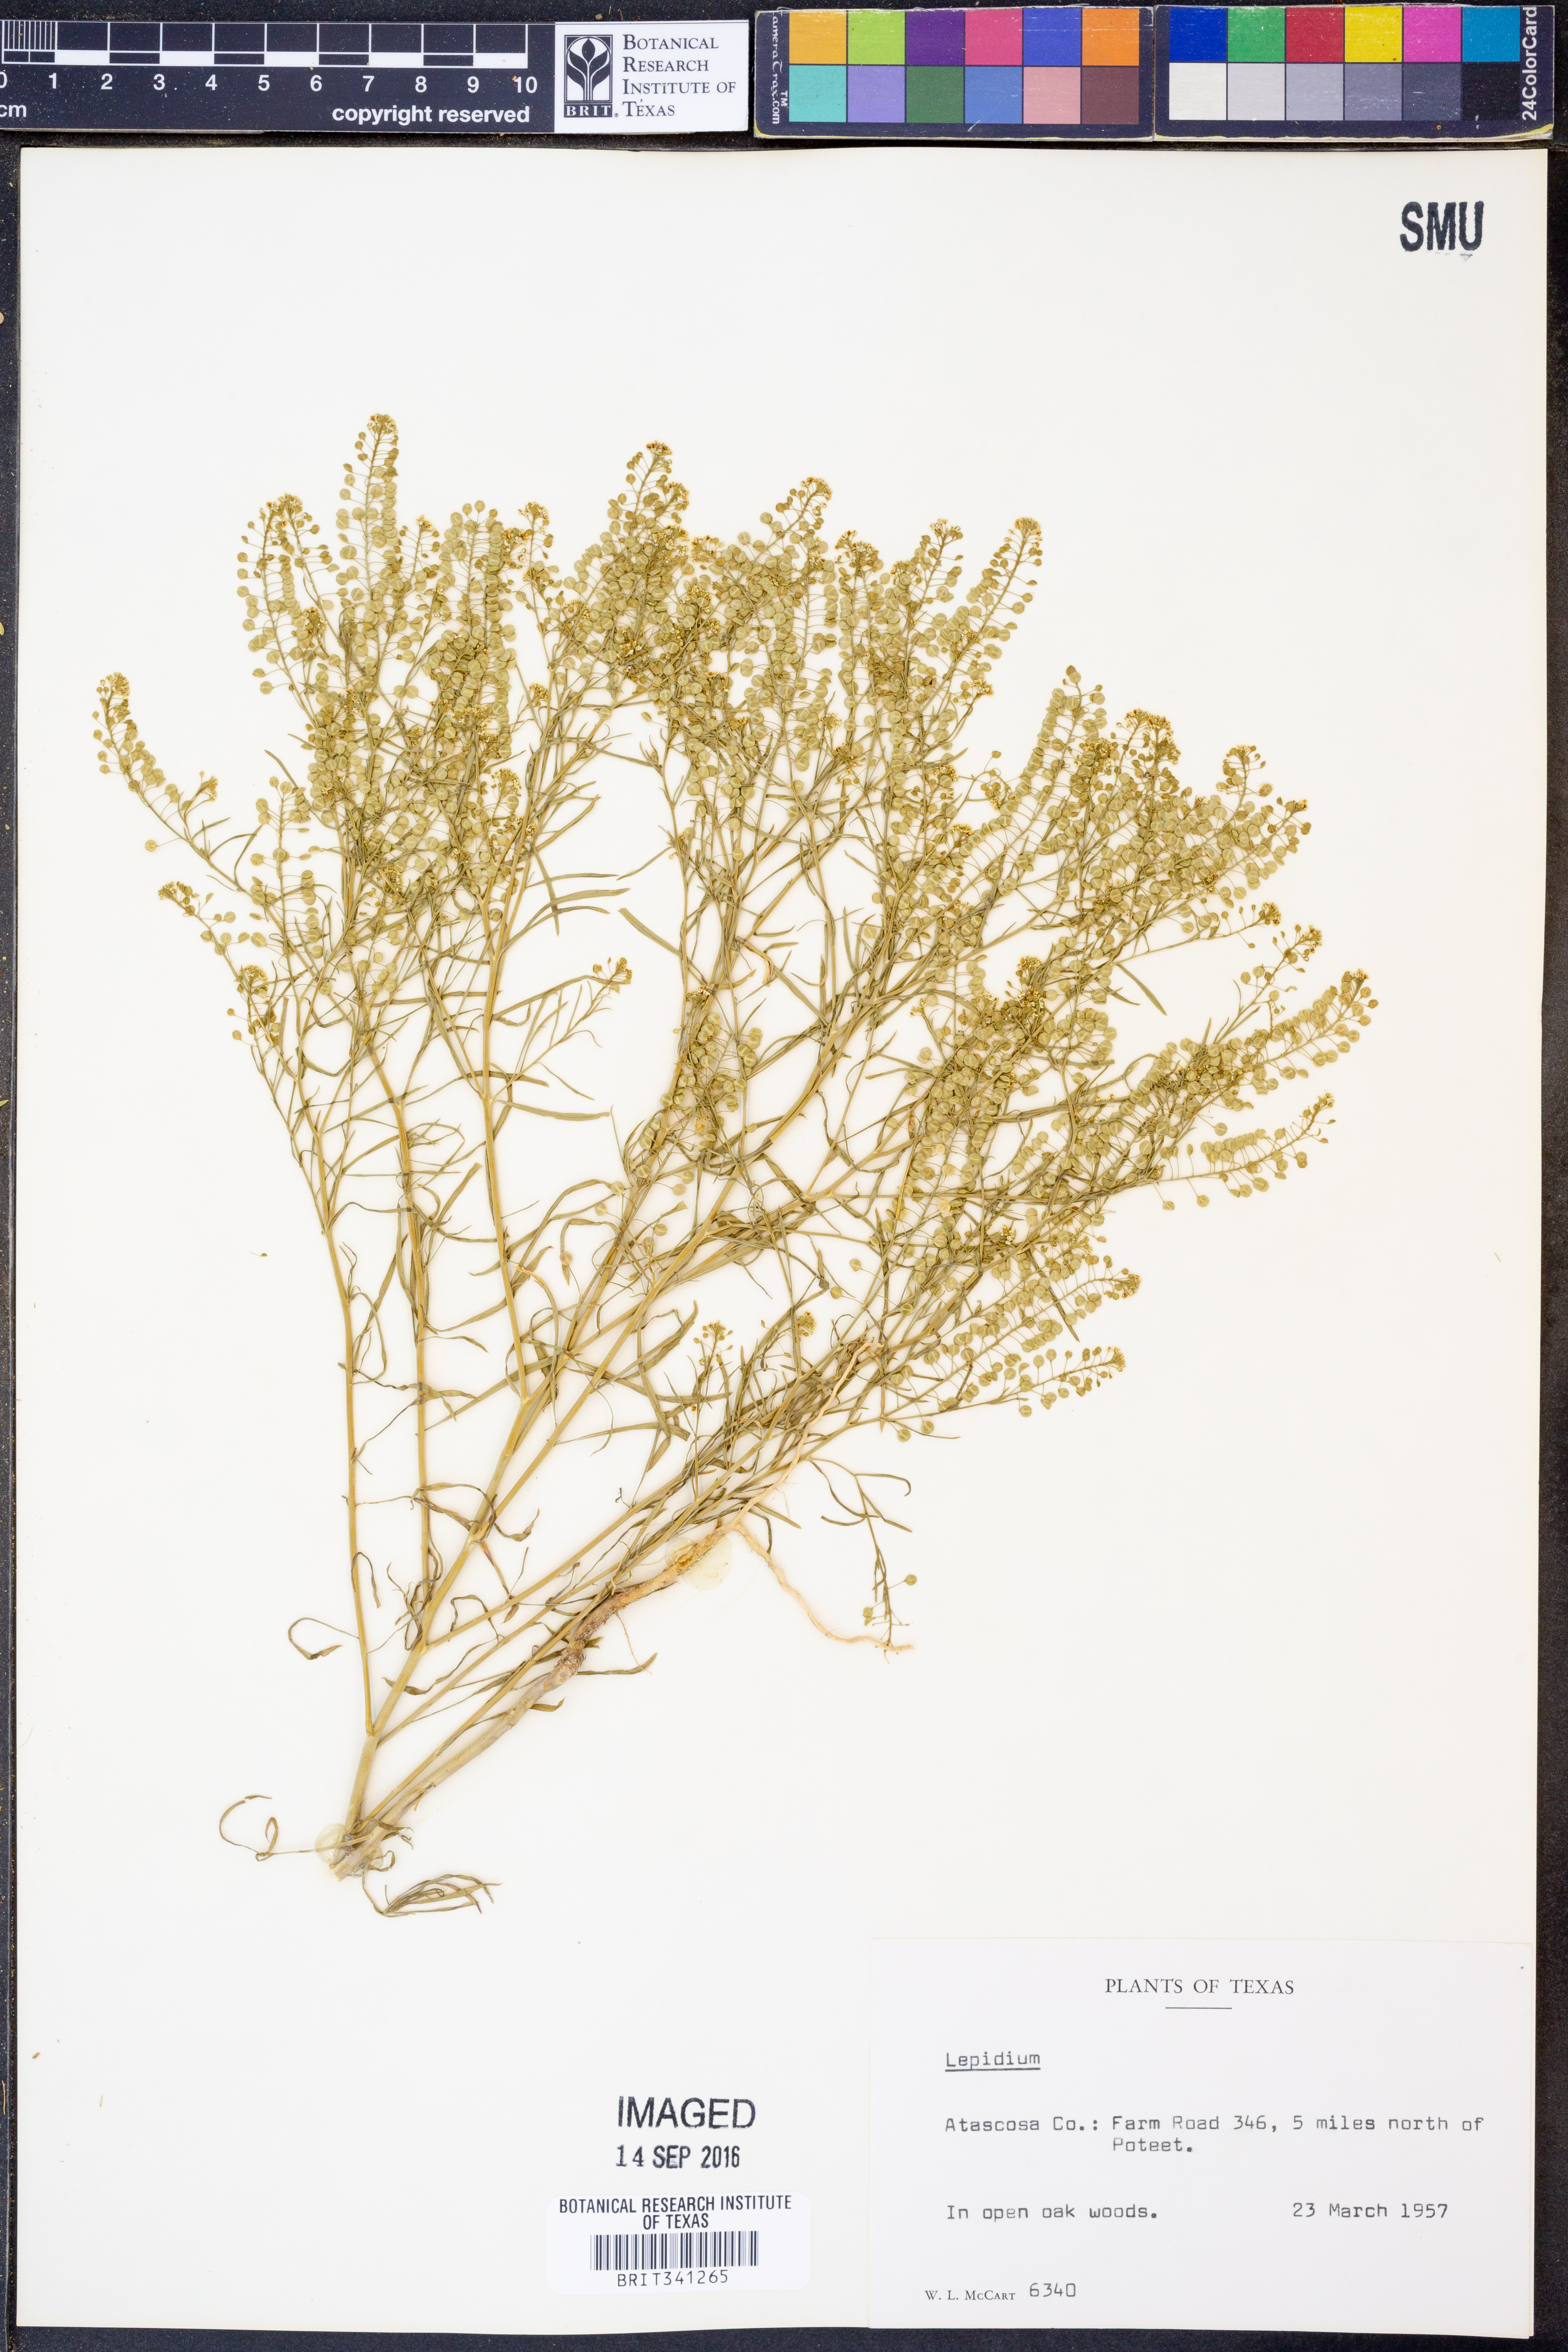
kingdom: Plantae
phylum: Tracheophyta
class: Magnoliopsida
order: Brassicales
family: Brassicaceae
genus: Lepidium
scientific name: Lepidium
